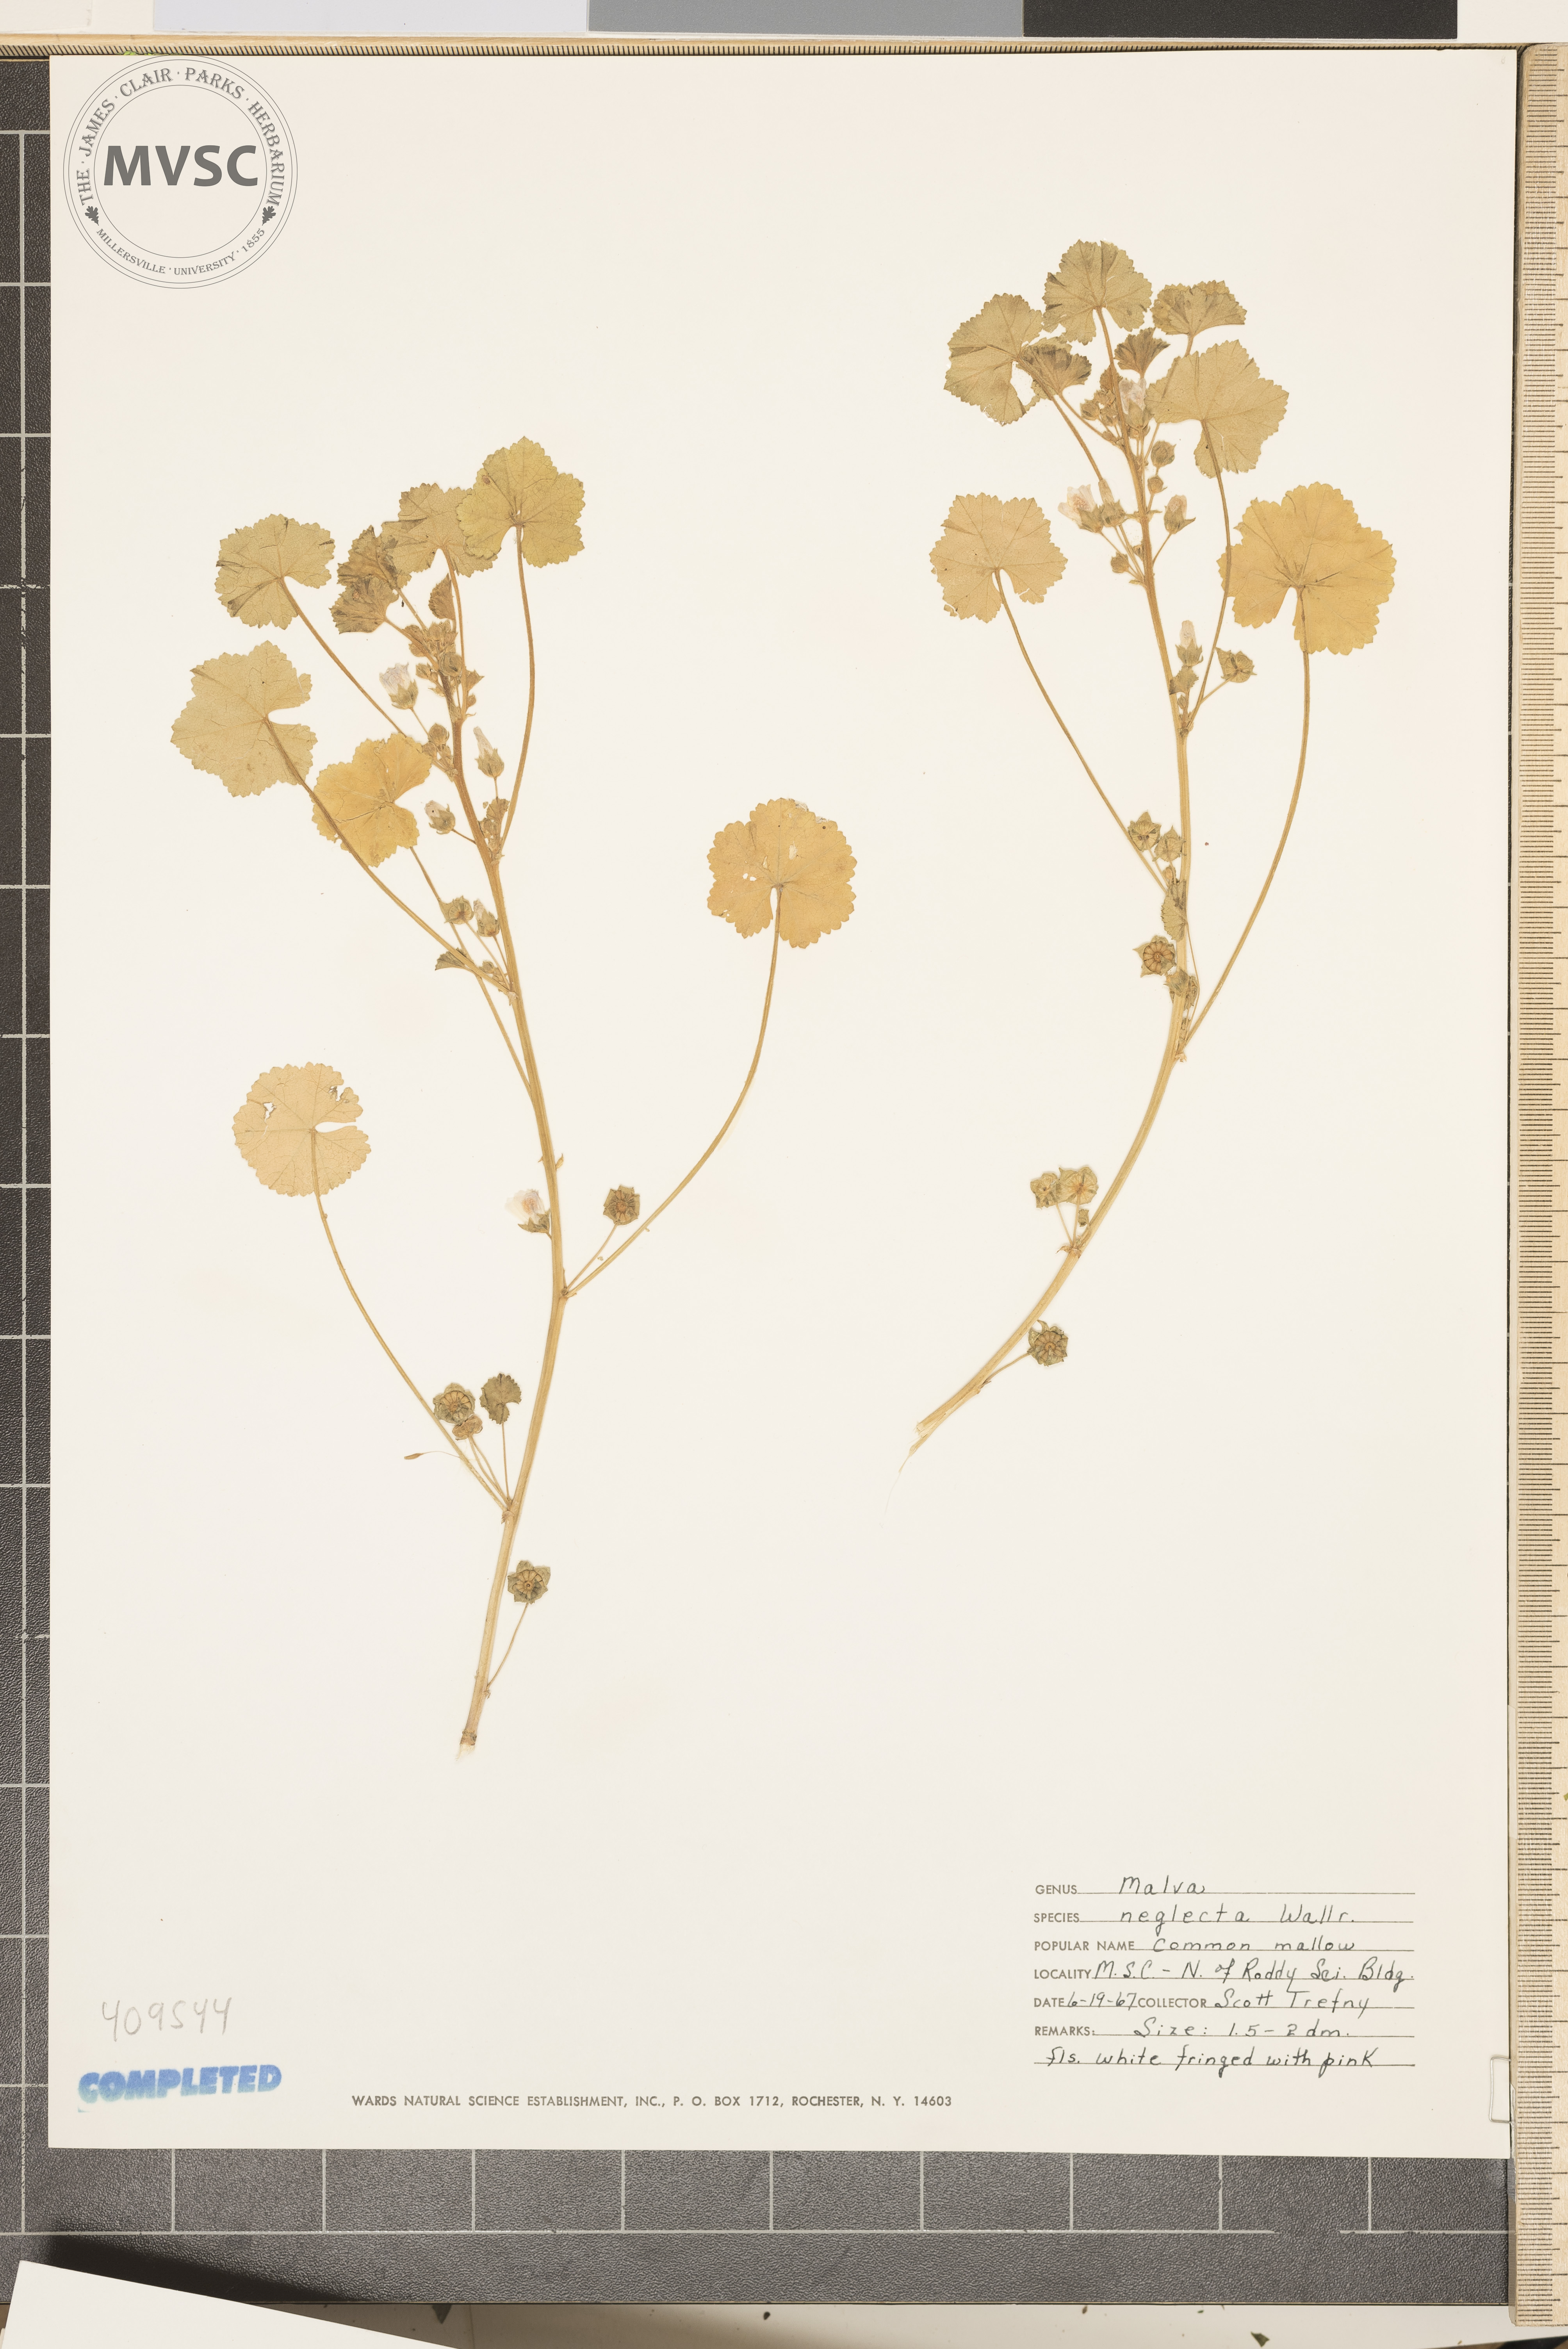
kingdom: Plantae
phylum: Tracheophyta
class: Magnoliopsida
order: Malvales
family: Malvaceae
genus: Malva
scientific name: Malva neglecta
